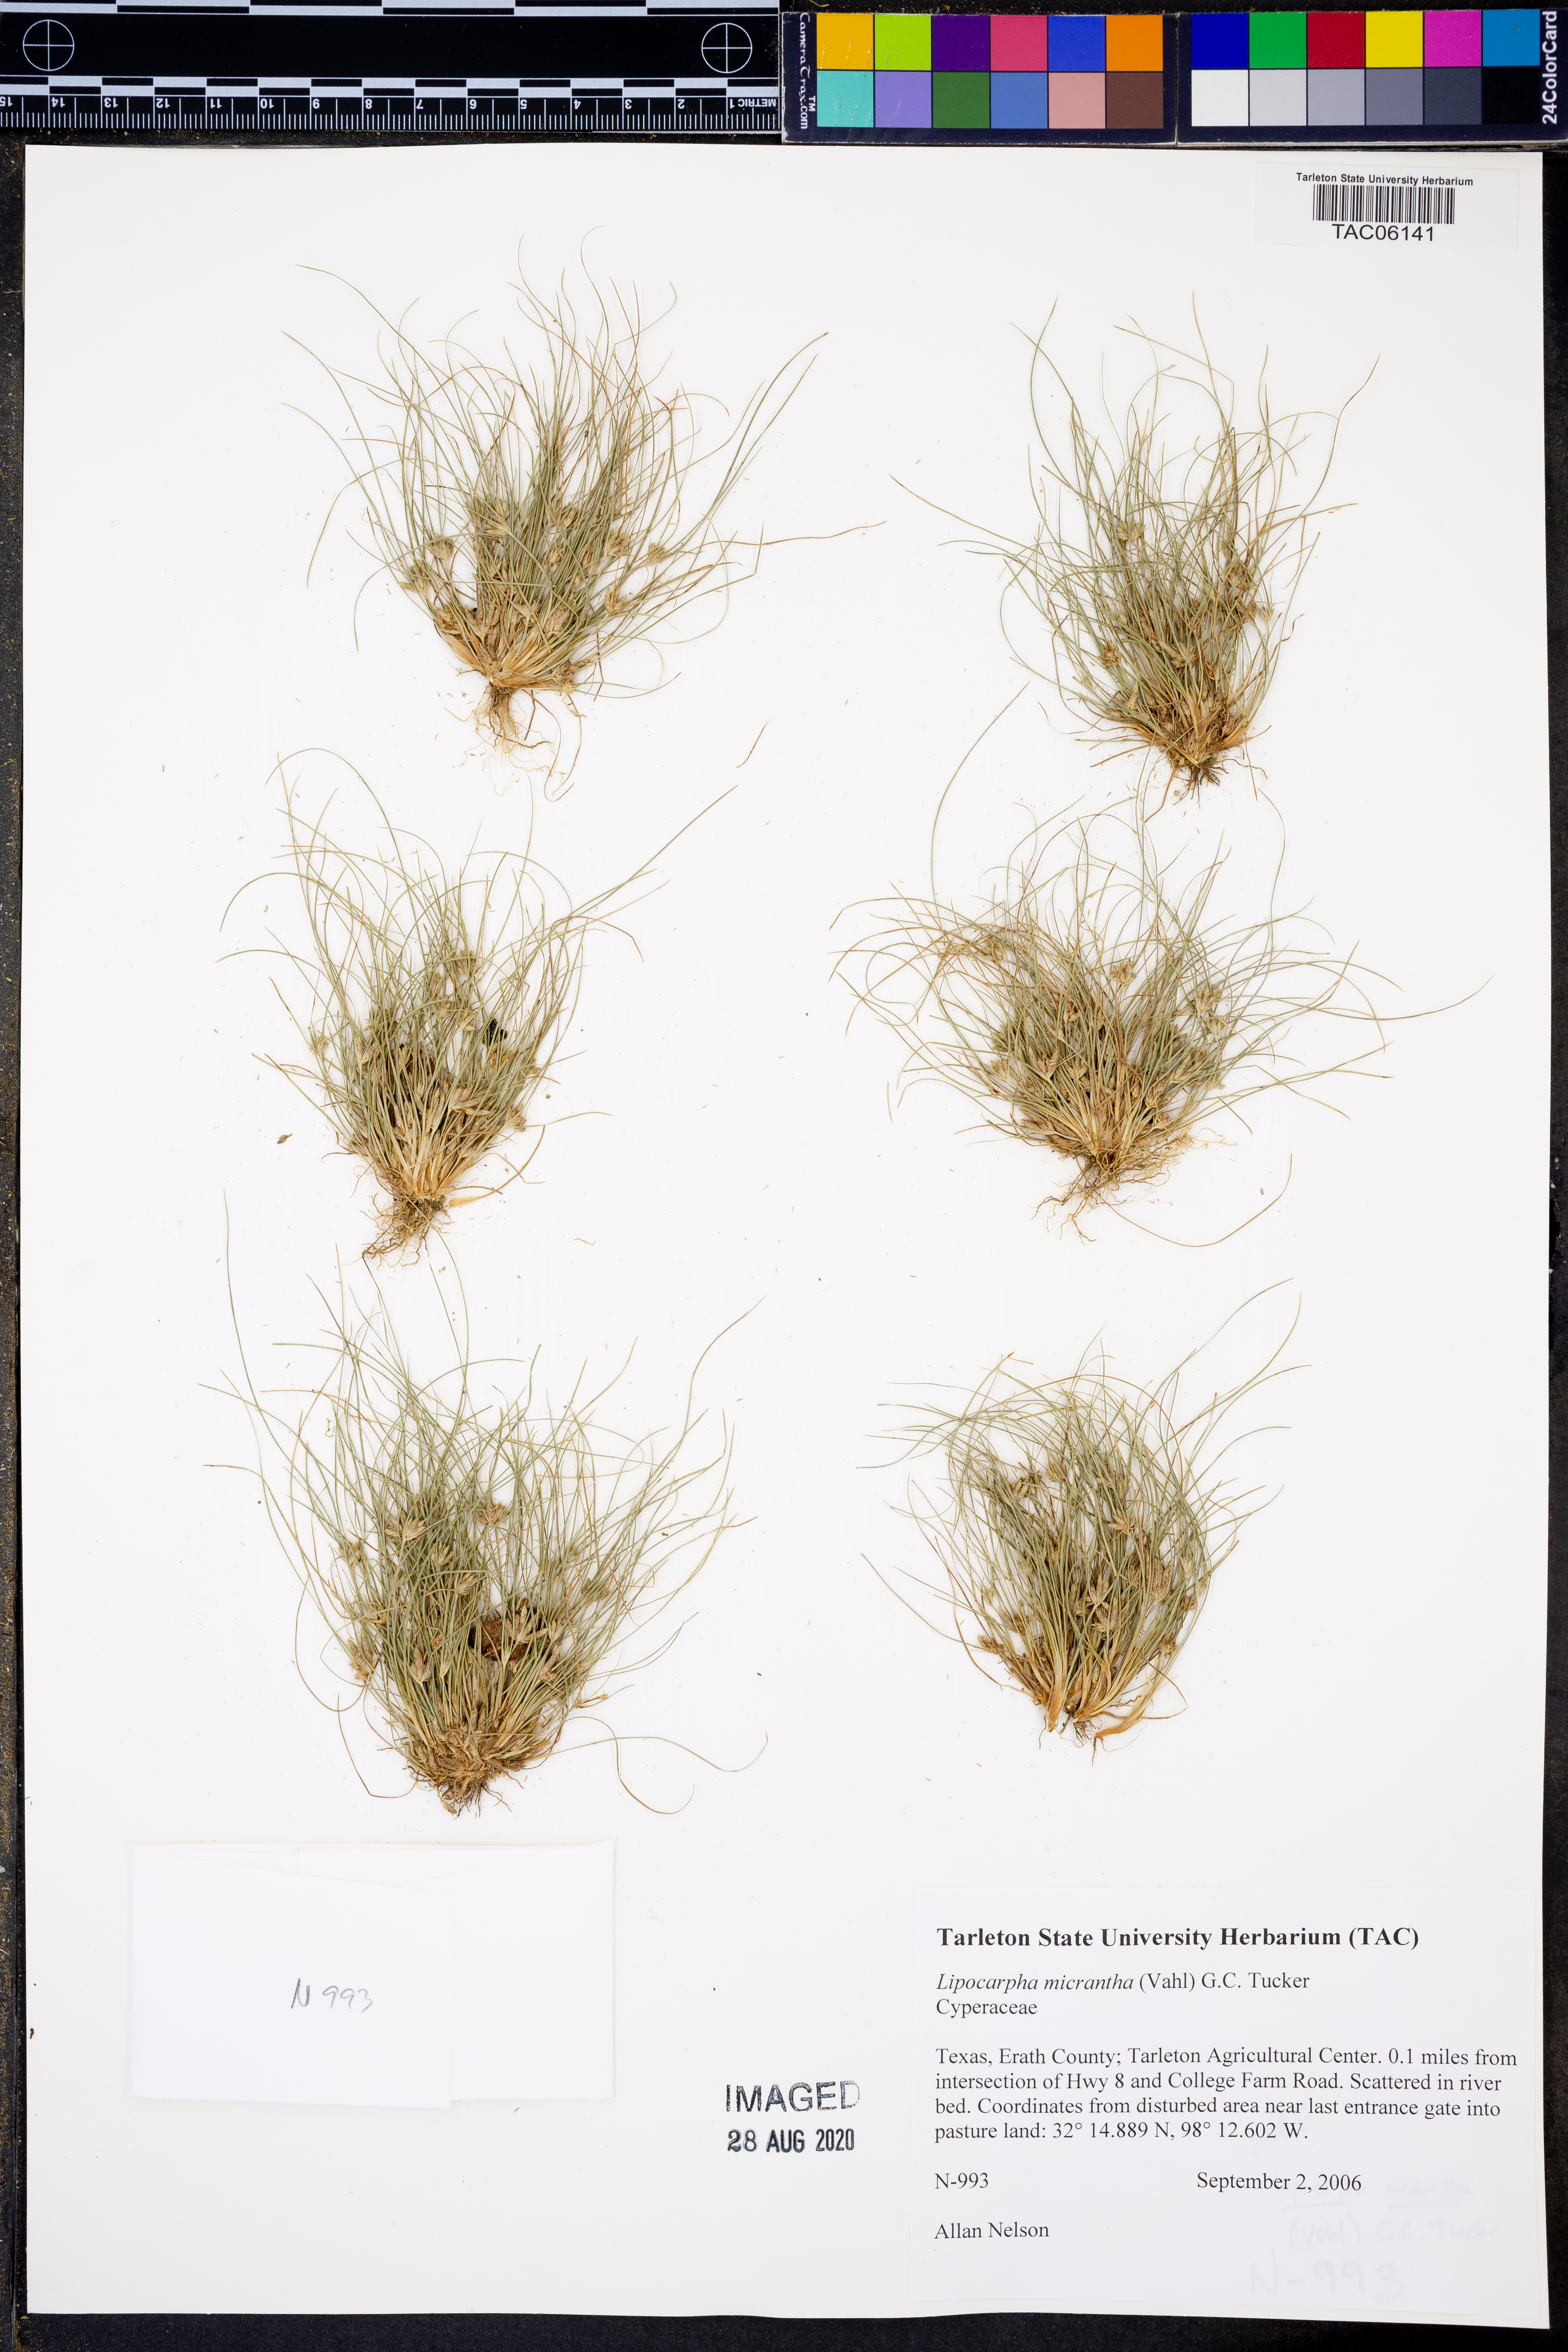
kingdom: Plantae
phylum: Tracheophyta
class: Liliopsida
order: Poales
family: Cyperaceae
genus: Cyperus
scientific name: Cyperus subsquarrosus
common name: Dwarf bulrush
